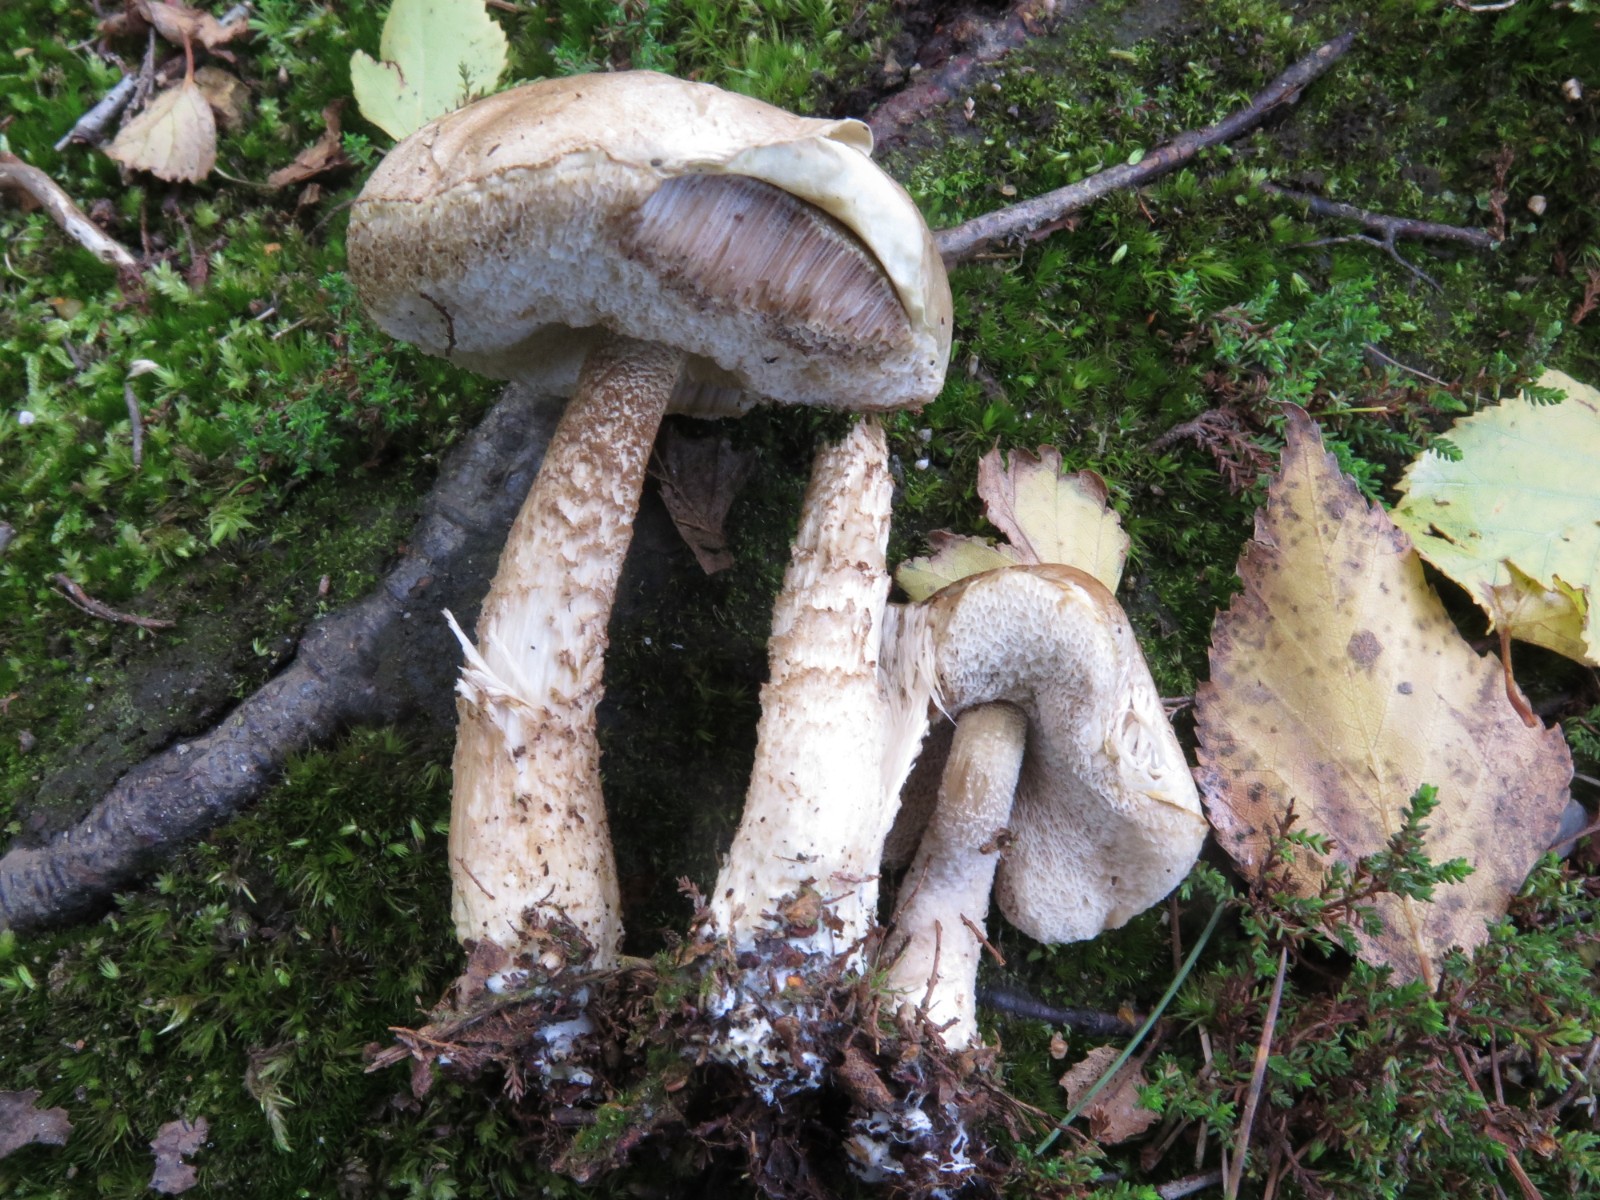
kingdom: Fungi
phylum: Basidiomycota
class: Agaricomycetes
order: Boletales
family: Boletaceae
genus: Leccinum
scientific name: Leccinum scabrum
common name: hvid skælrørhat
